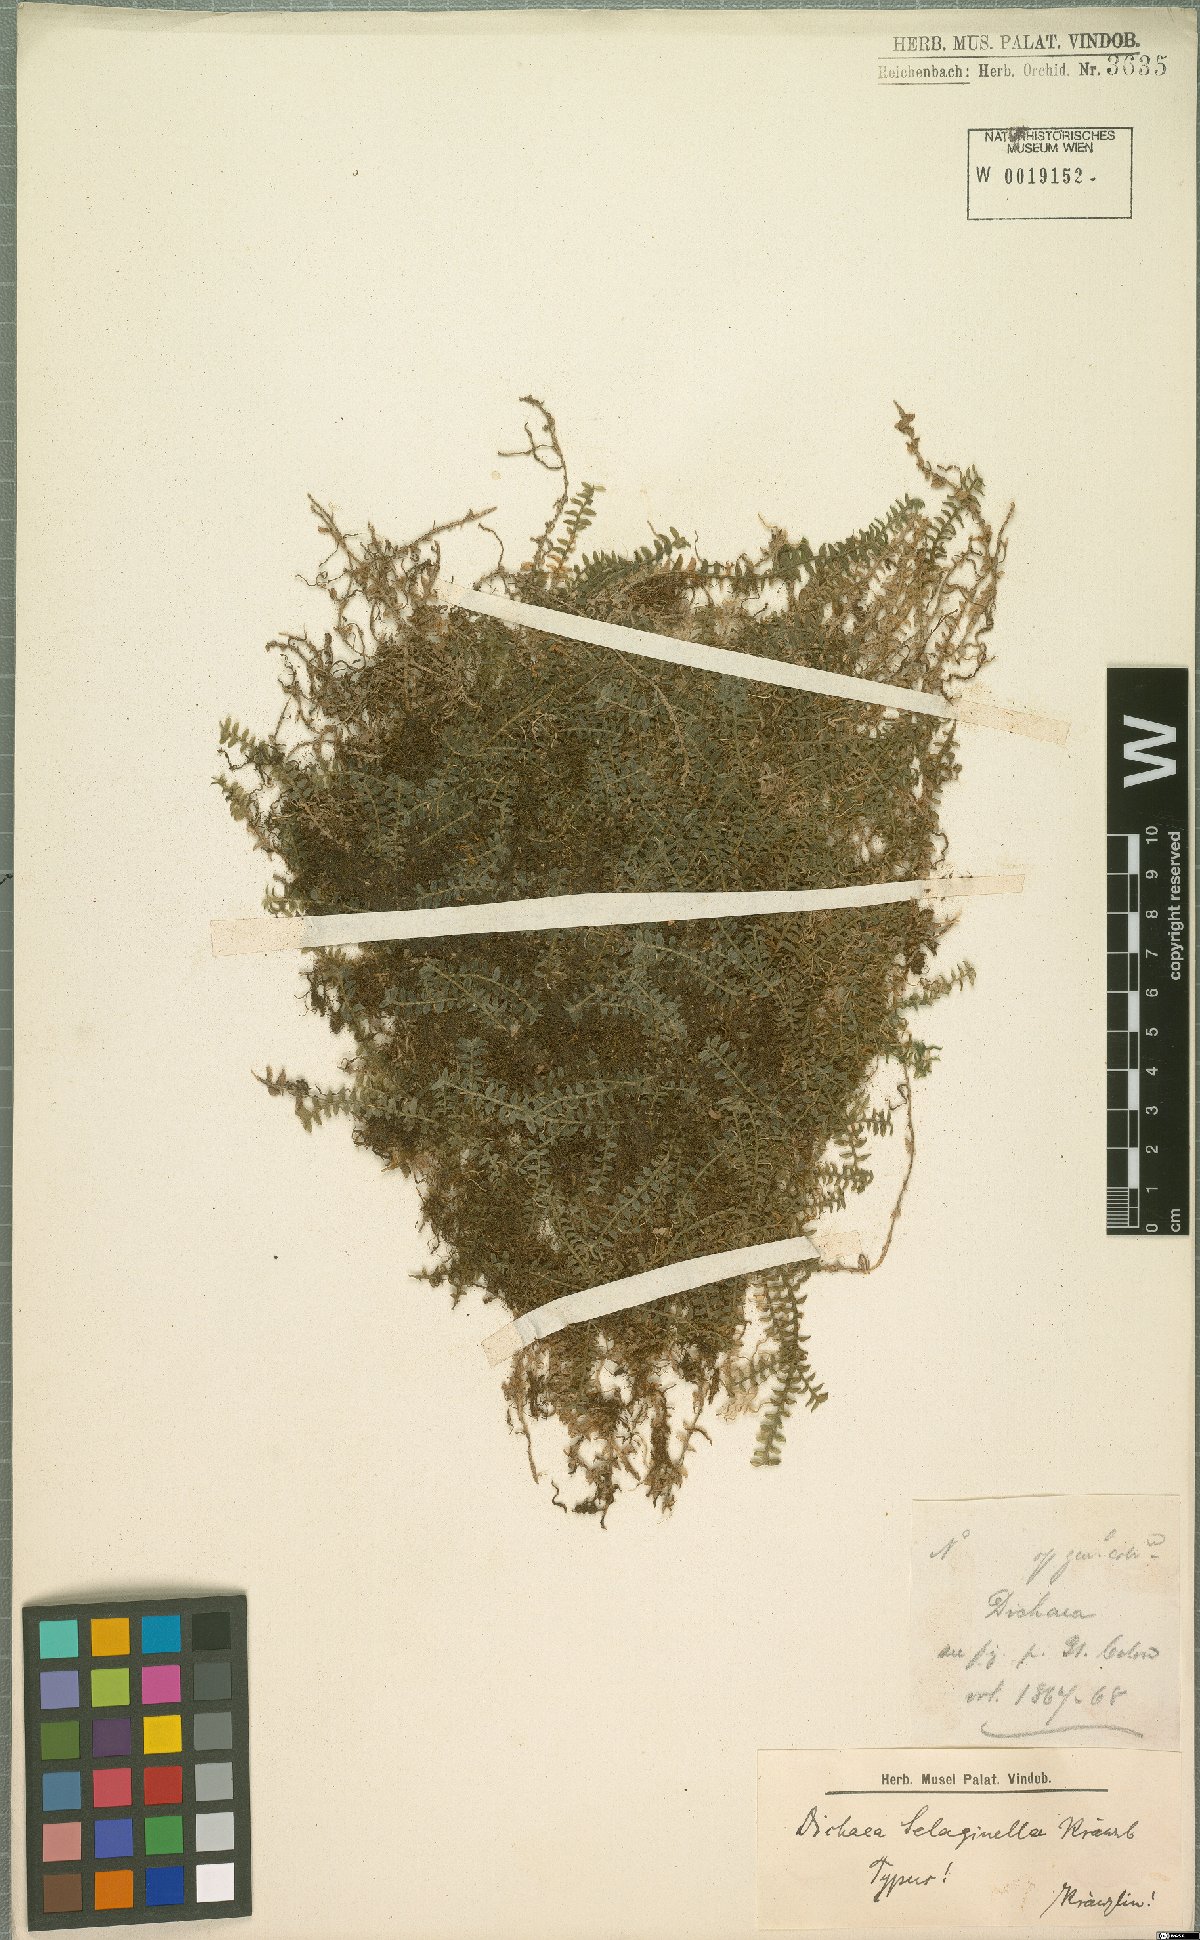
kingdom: Plantae
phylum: Tracheophyta
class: Liliopsida
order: Asparagales
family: Orchidaceae
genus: Dichaea
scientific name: Dichaea selaginella
